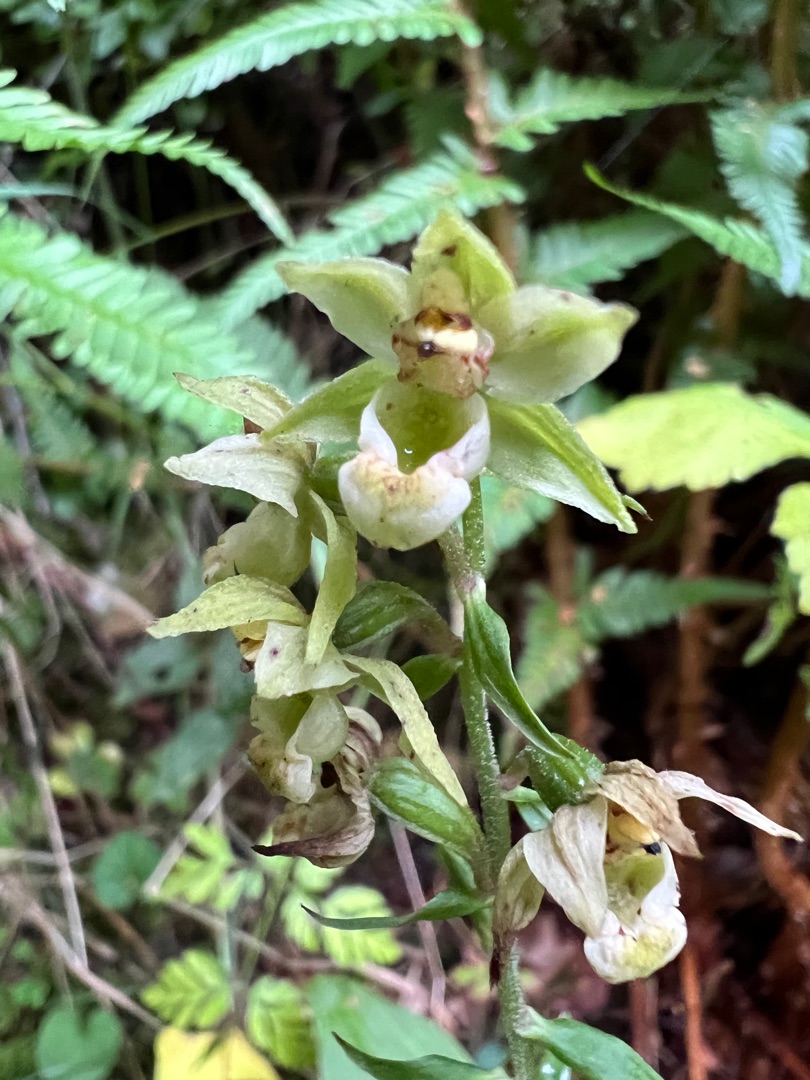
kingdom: Plantae
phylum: Tracheophyta
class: Liliopsida
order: Asparagales
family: Orchidaceae
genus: Epipactis
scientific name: Epipactis helleborine
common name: Skov-hullæbe
